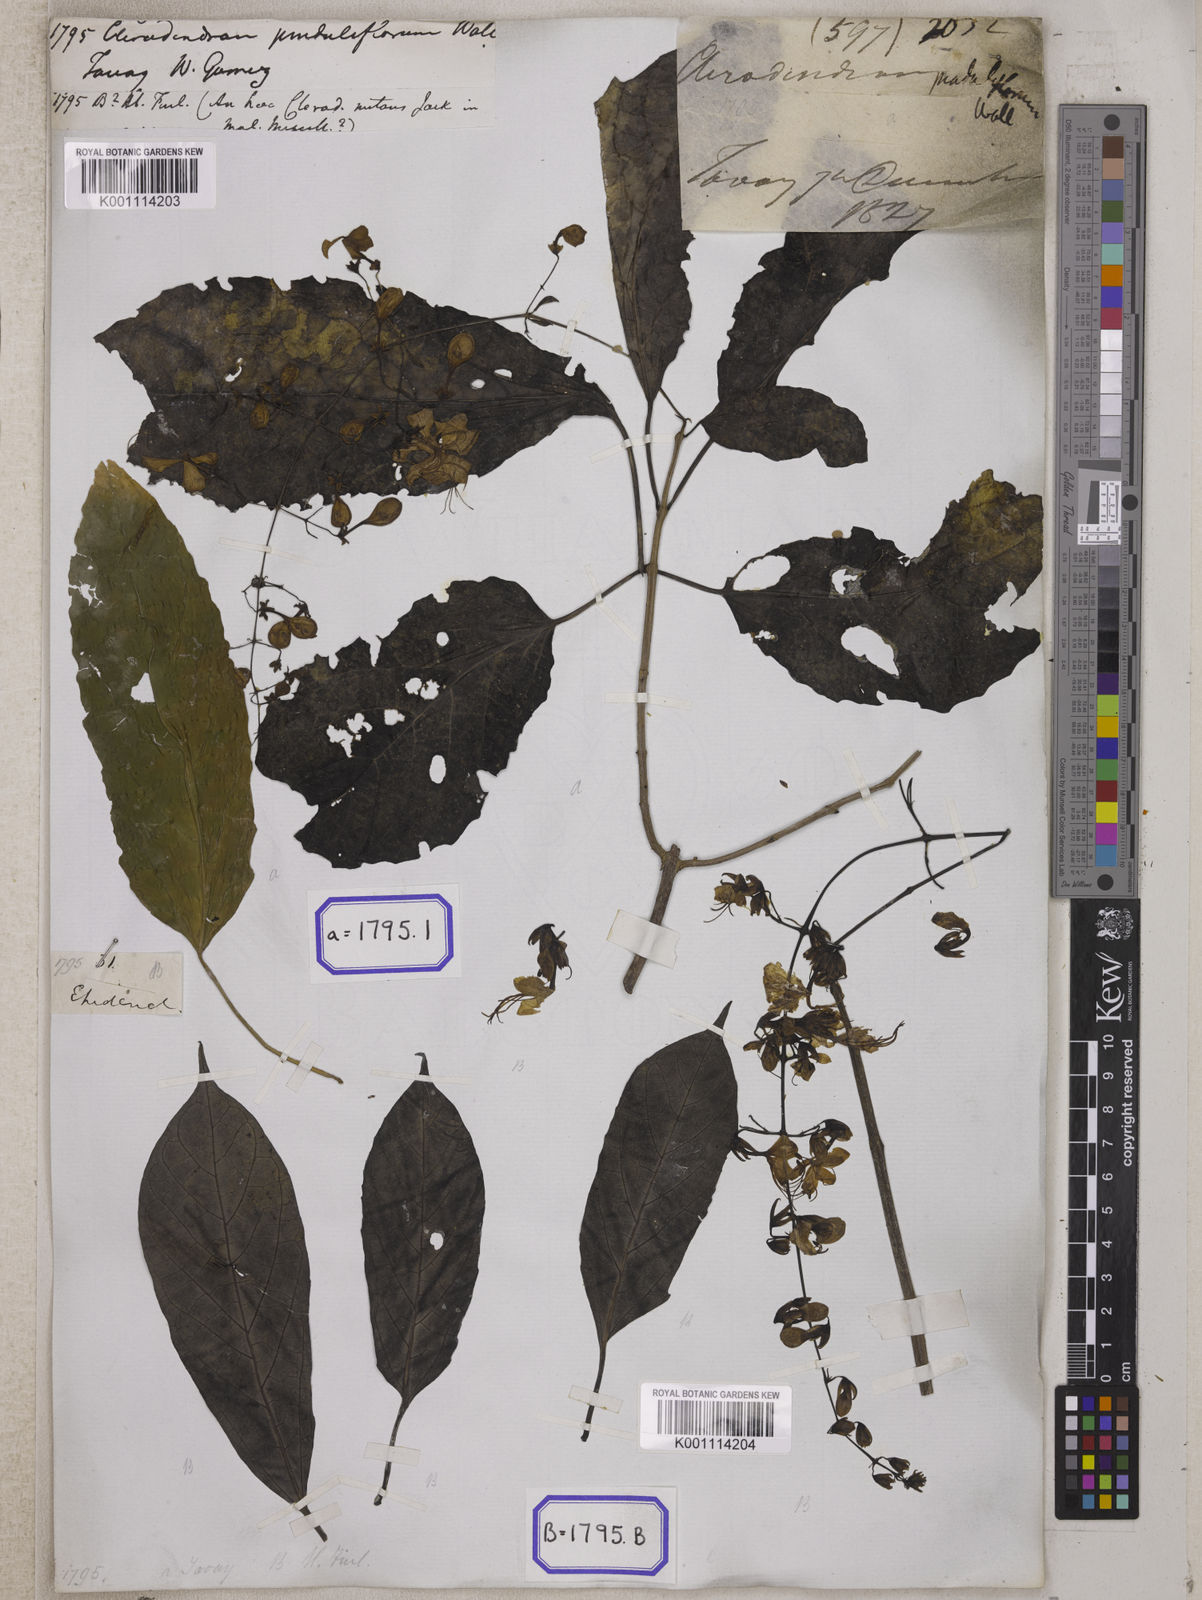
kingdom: Plantae
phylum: Tracheophyta
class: Magnoliopsida
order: Lamiales
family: Lamiaceae
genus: Clerodendrum
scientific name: Clerodendrum
